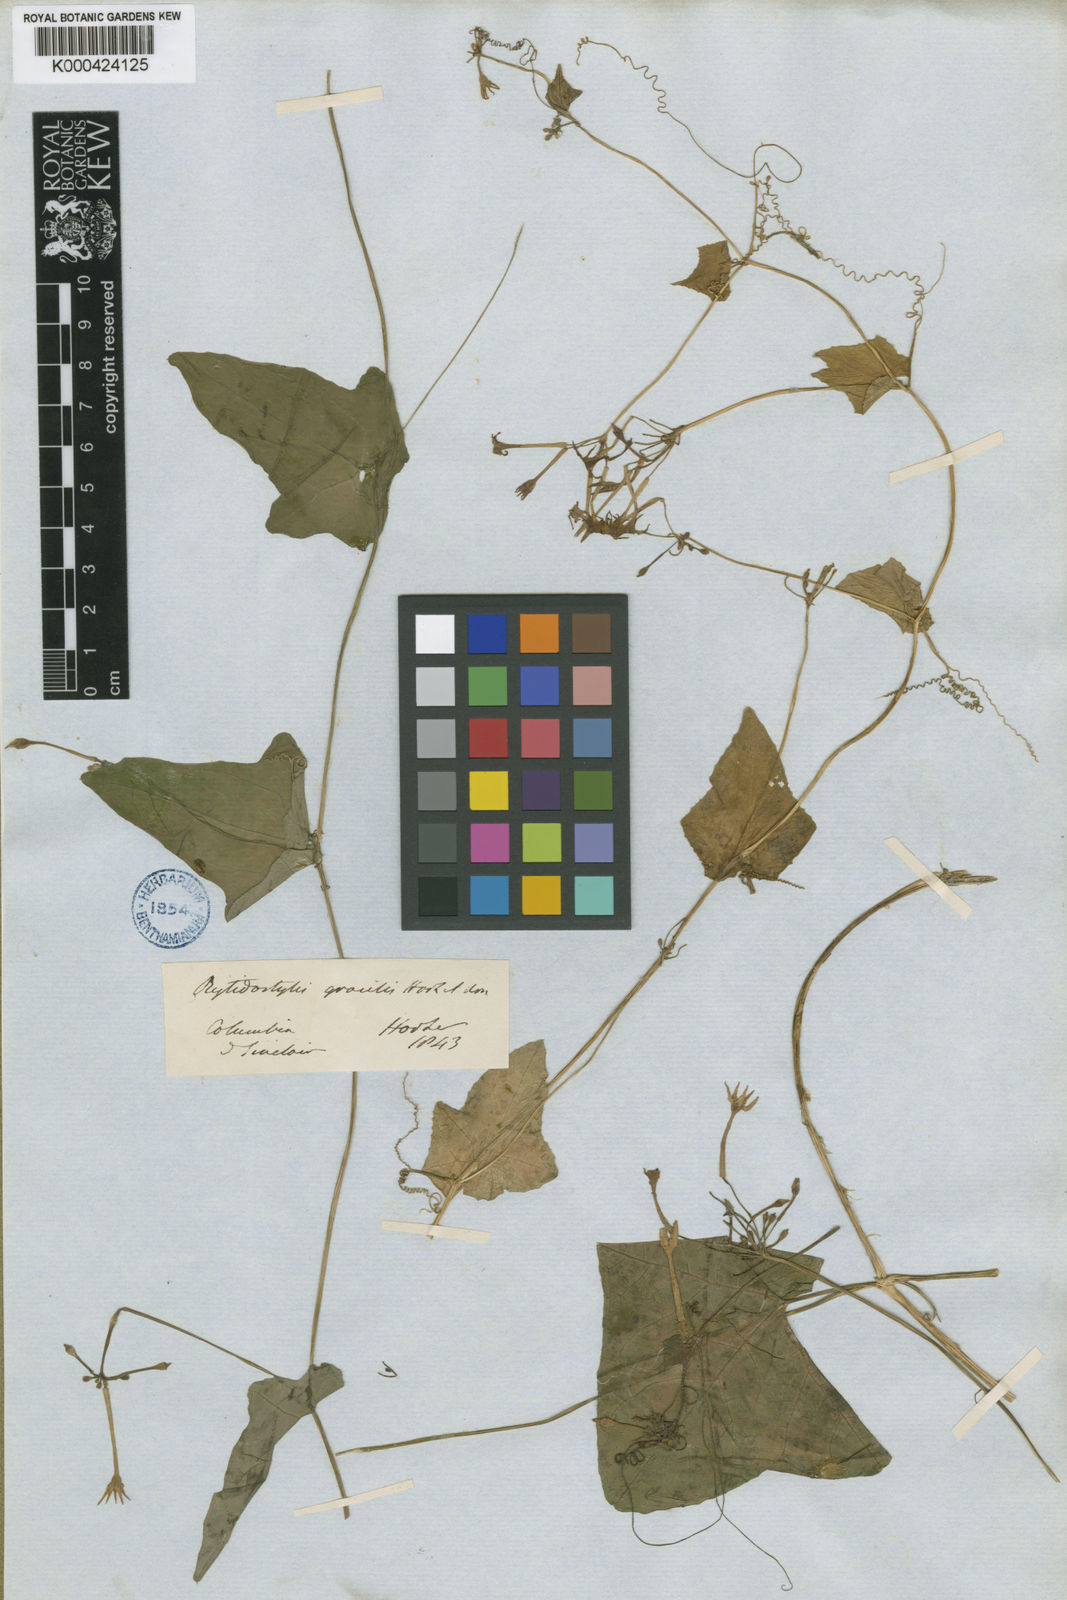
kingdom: Plantae
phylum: Tracheophyta
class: Magnoliopsida
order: Cucurbitales
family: Cucurbitaceae
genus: Cyclanthera
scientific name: Cyclanthera filiformis
